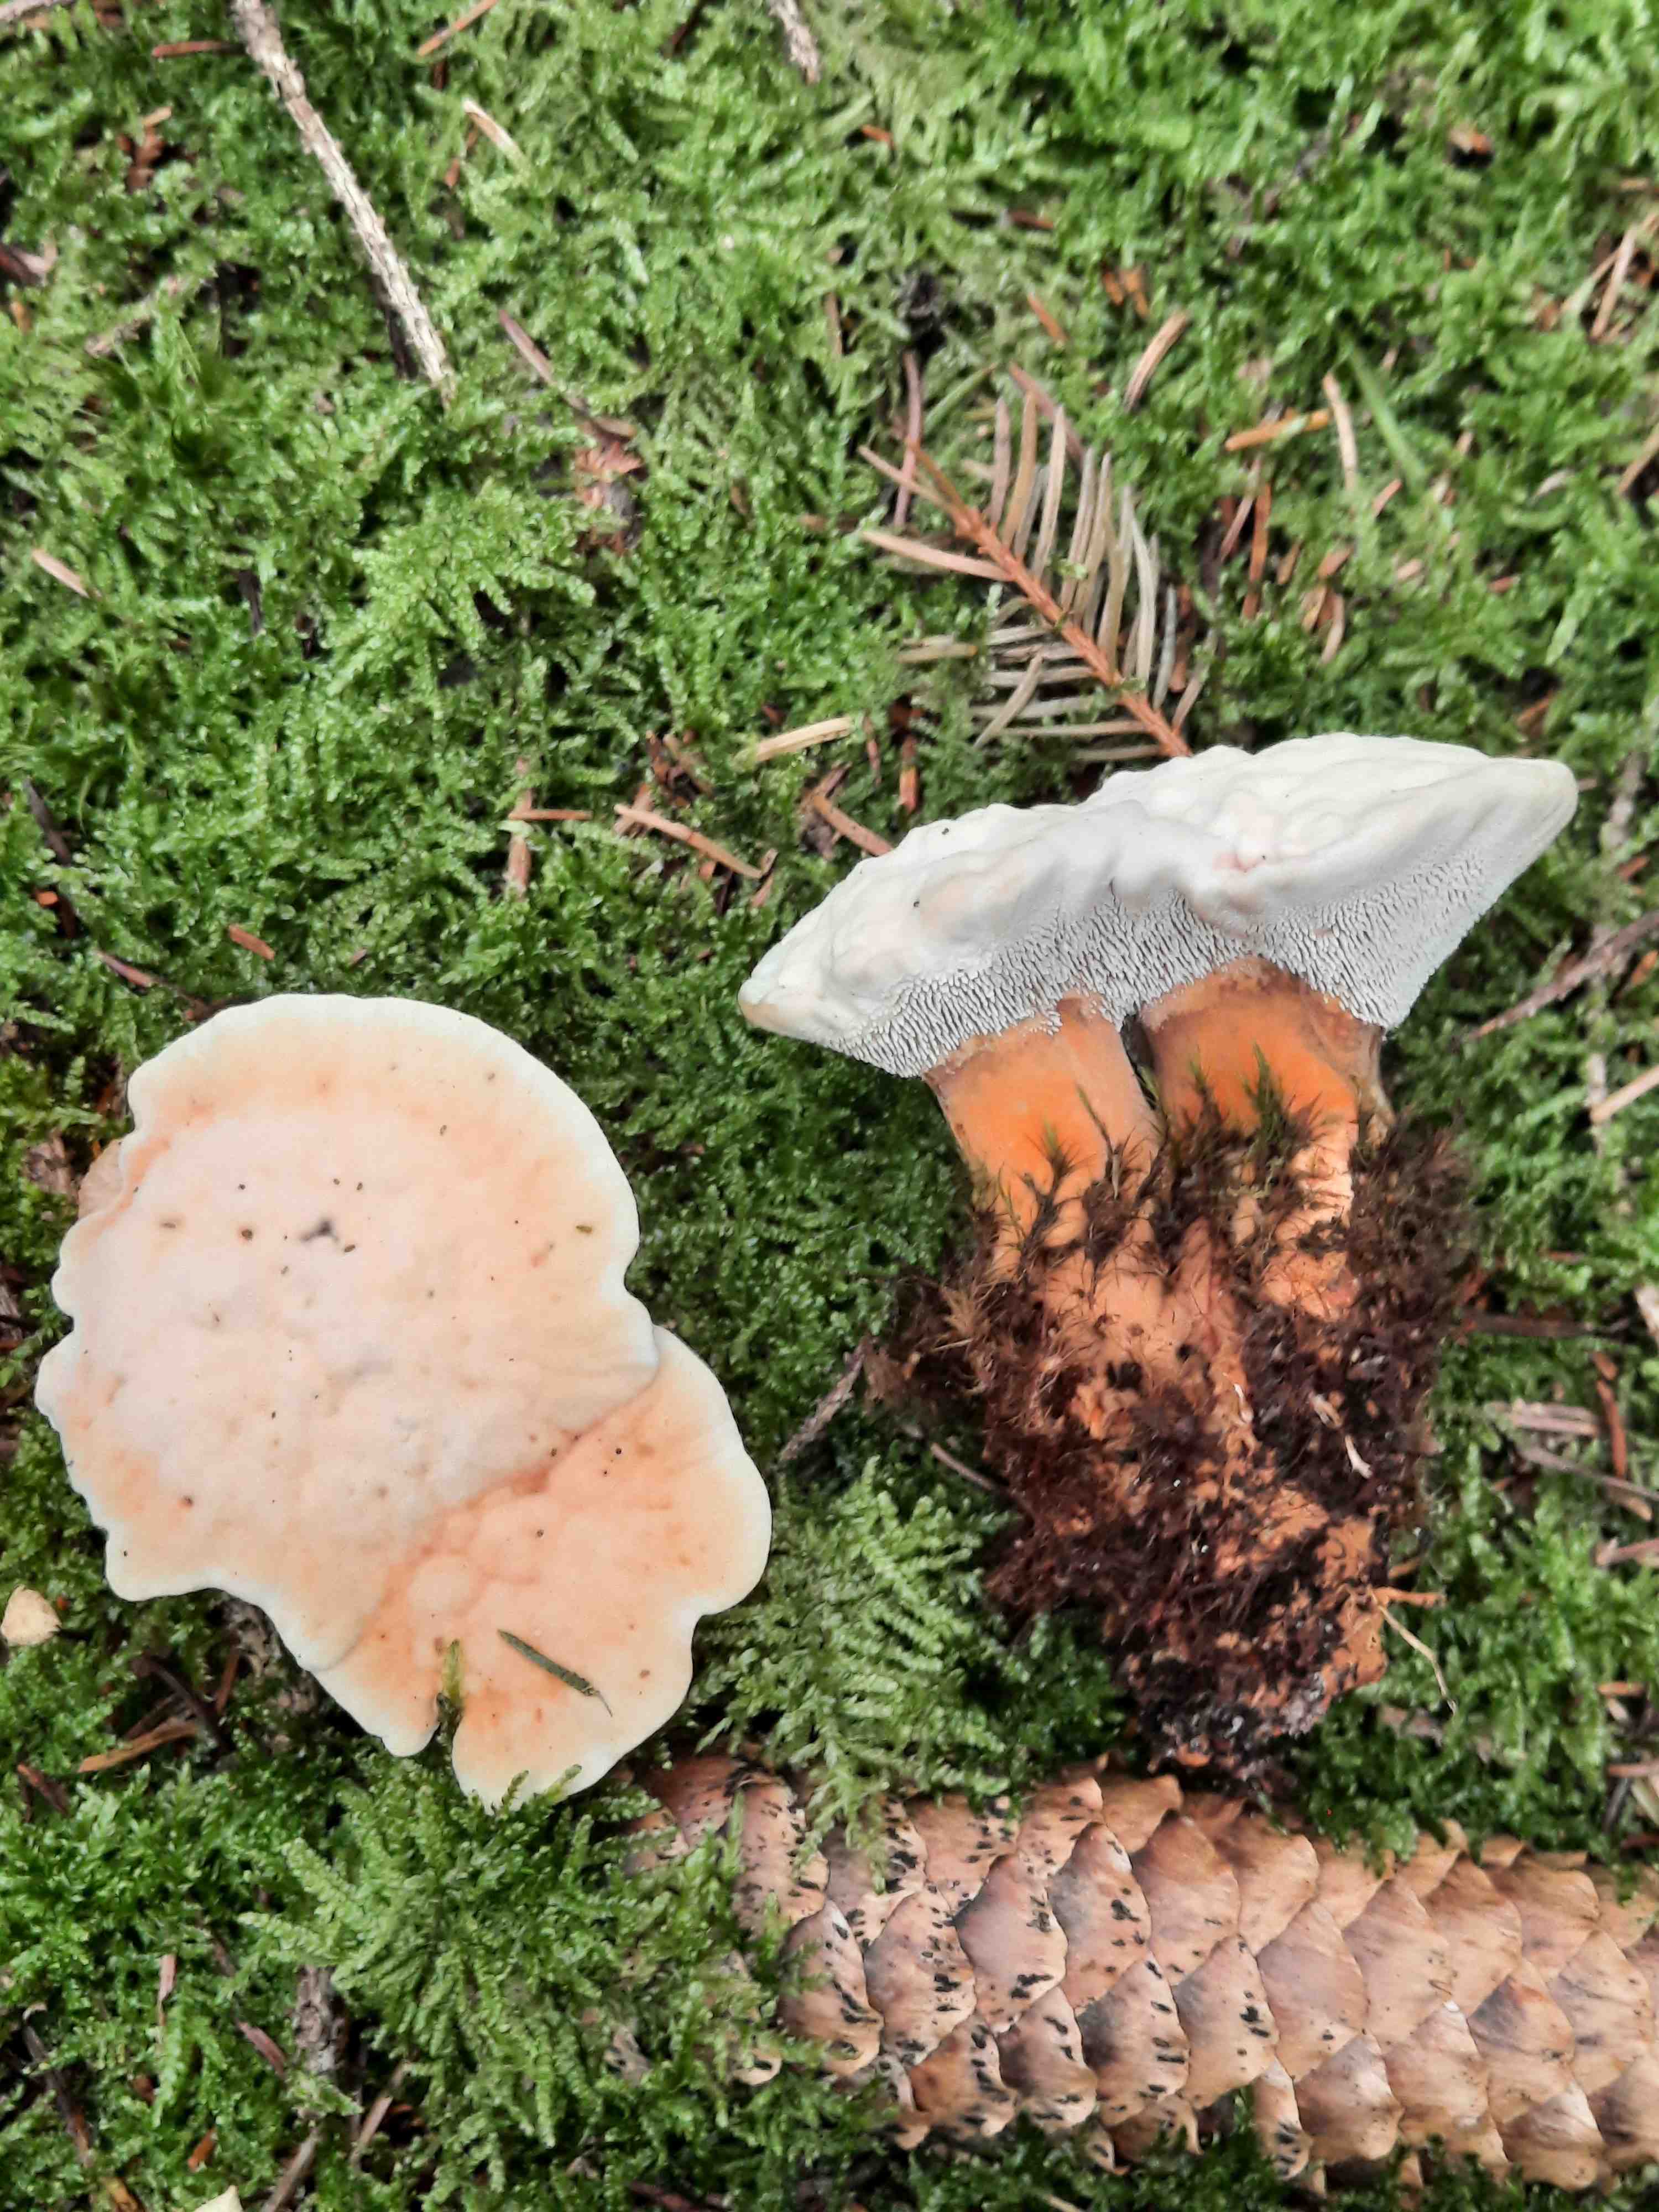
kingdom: Fungi
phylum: Basidiomycota
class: Agaricomycetes
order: Thelephorales
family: Bankeraceae
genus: Hydnellum
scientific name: Hydnellum aurantiacum
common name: orange korkpigsvamp
